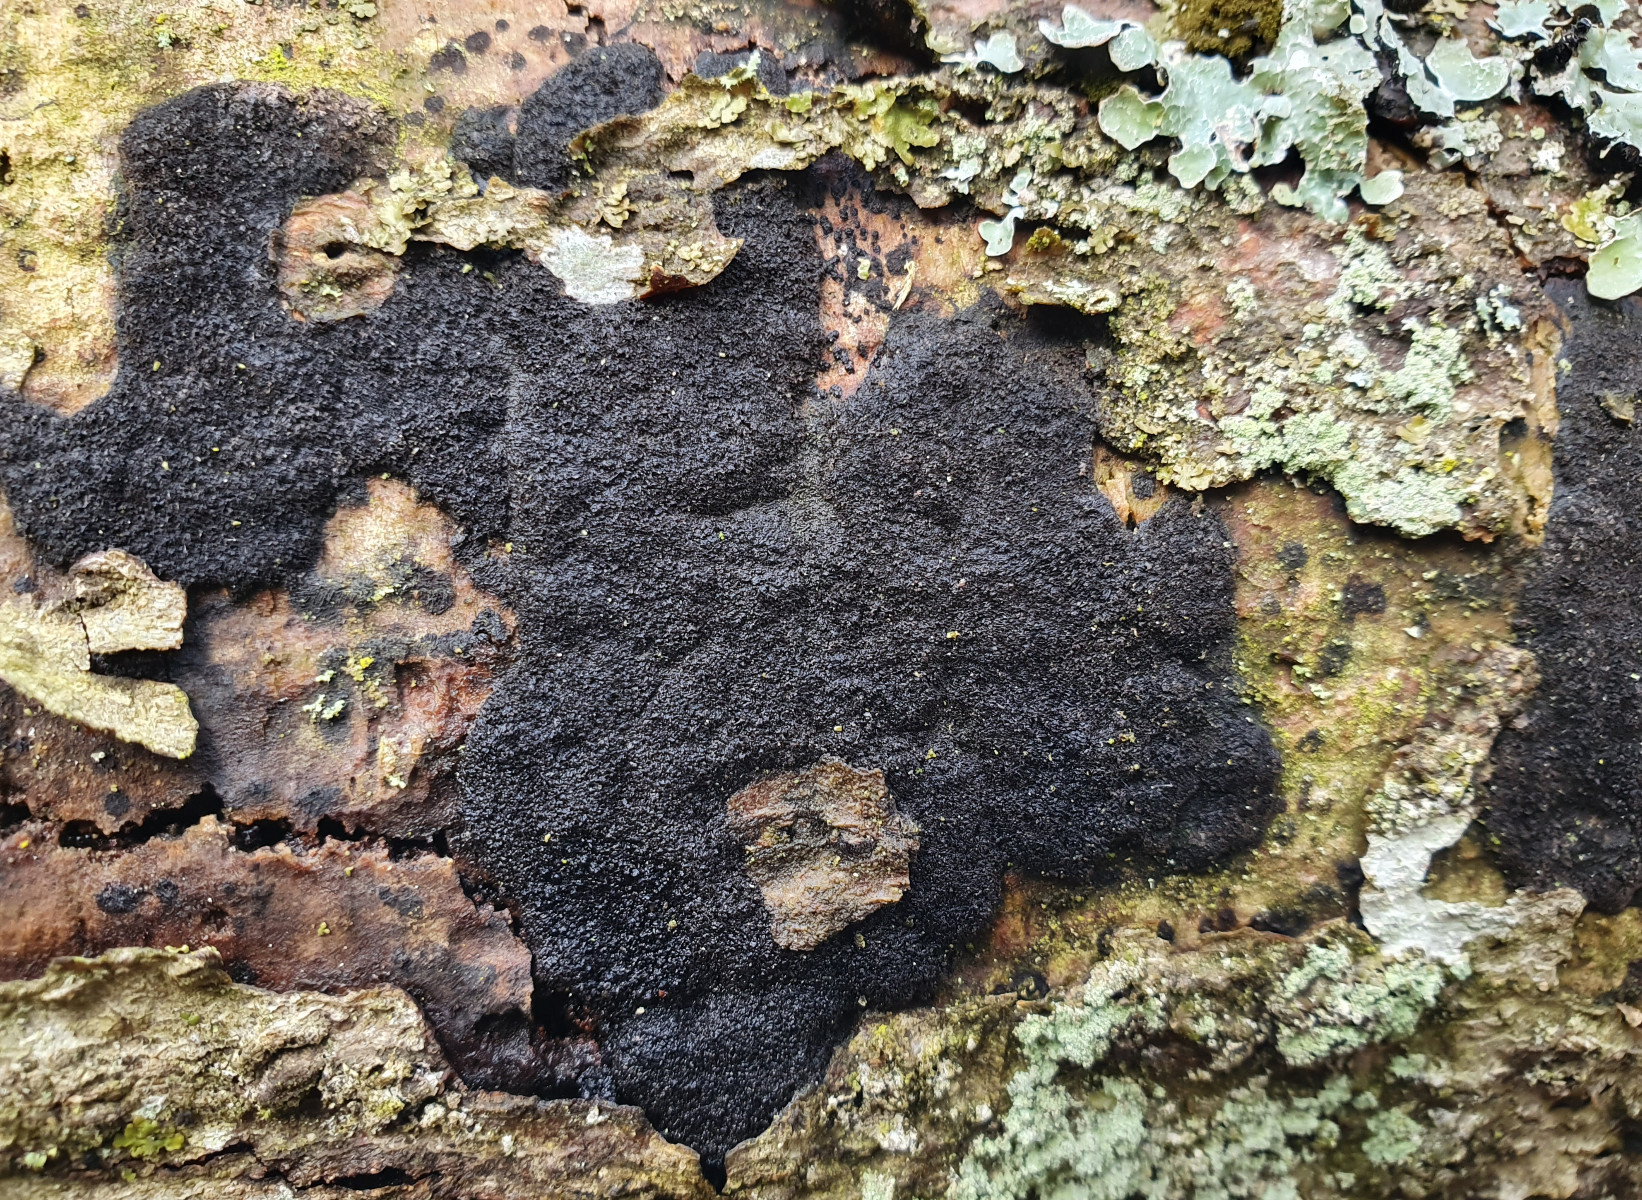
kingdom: Fungi
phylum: Ascomycota
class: Sordariomycetes
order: Xylariales
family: Diatrypaceae
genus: Eutypa
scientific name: Eutypa spinosa
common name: grov kulskorpe
